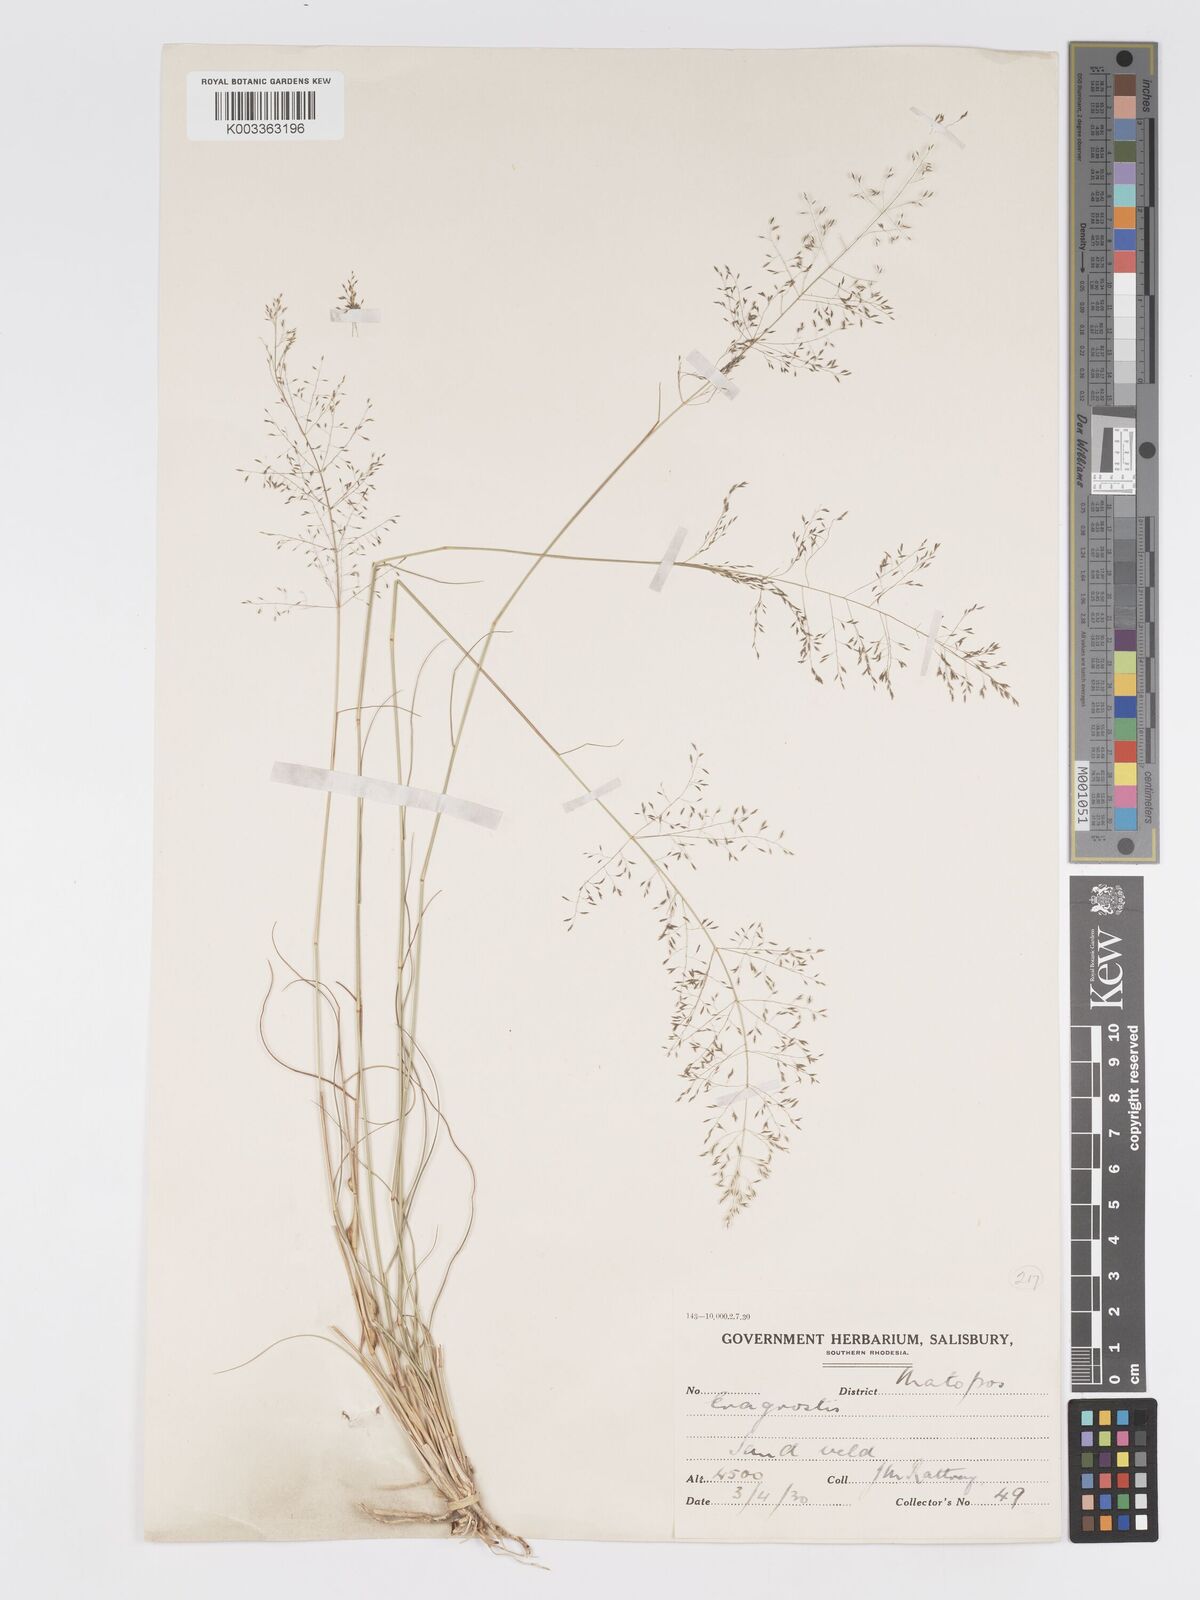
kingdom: Plantae
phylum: Tracheophyta
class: Liliopsida
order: Poales
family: Poaceae
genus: Eragrostis
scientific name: Eragrostis stapfii
